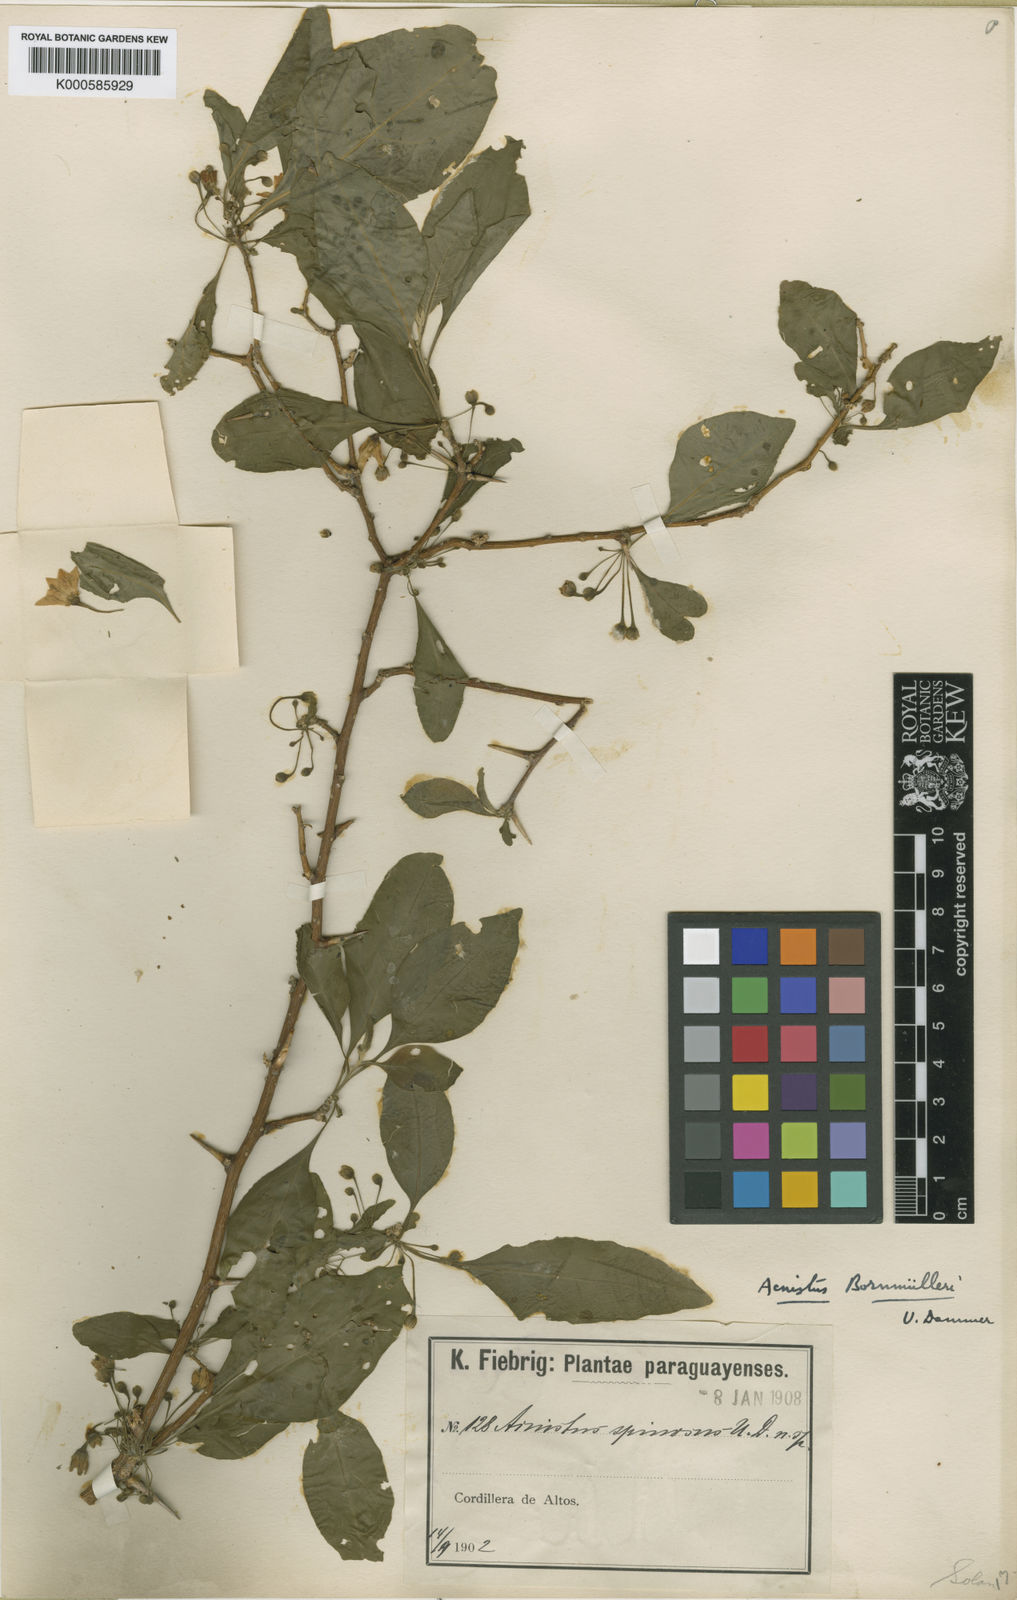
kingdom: Plantae
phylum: Tracheophyta
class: Magnoliopsida
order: Solanales
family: Solanaceae
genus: Iochroma
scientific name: Iochroma Acnistus spec
